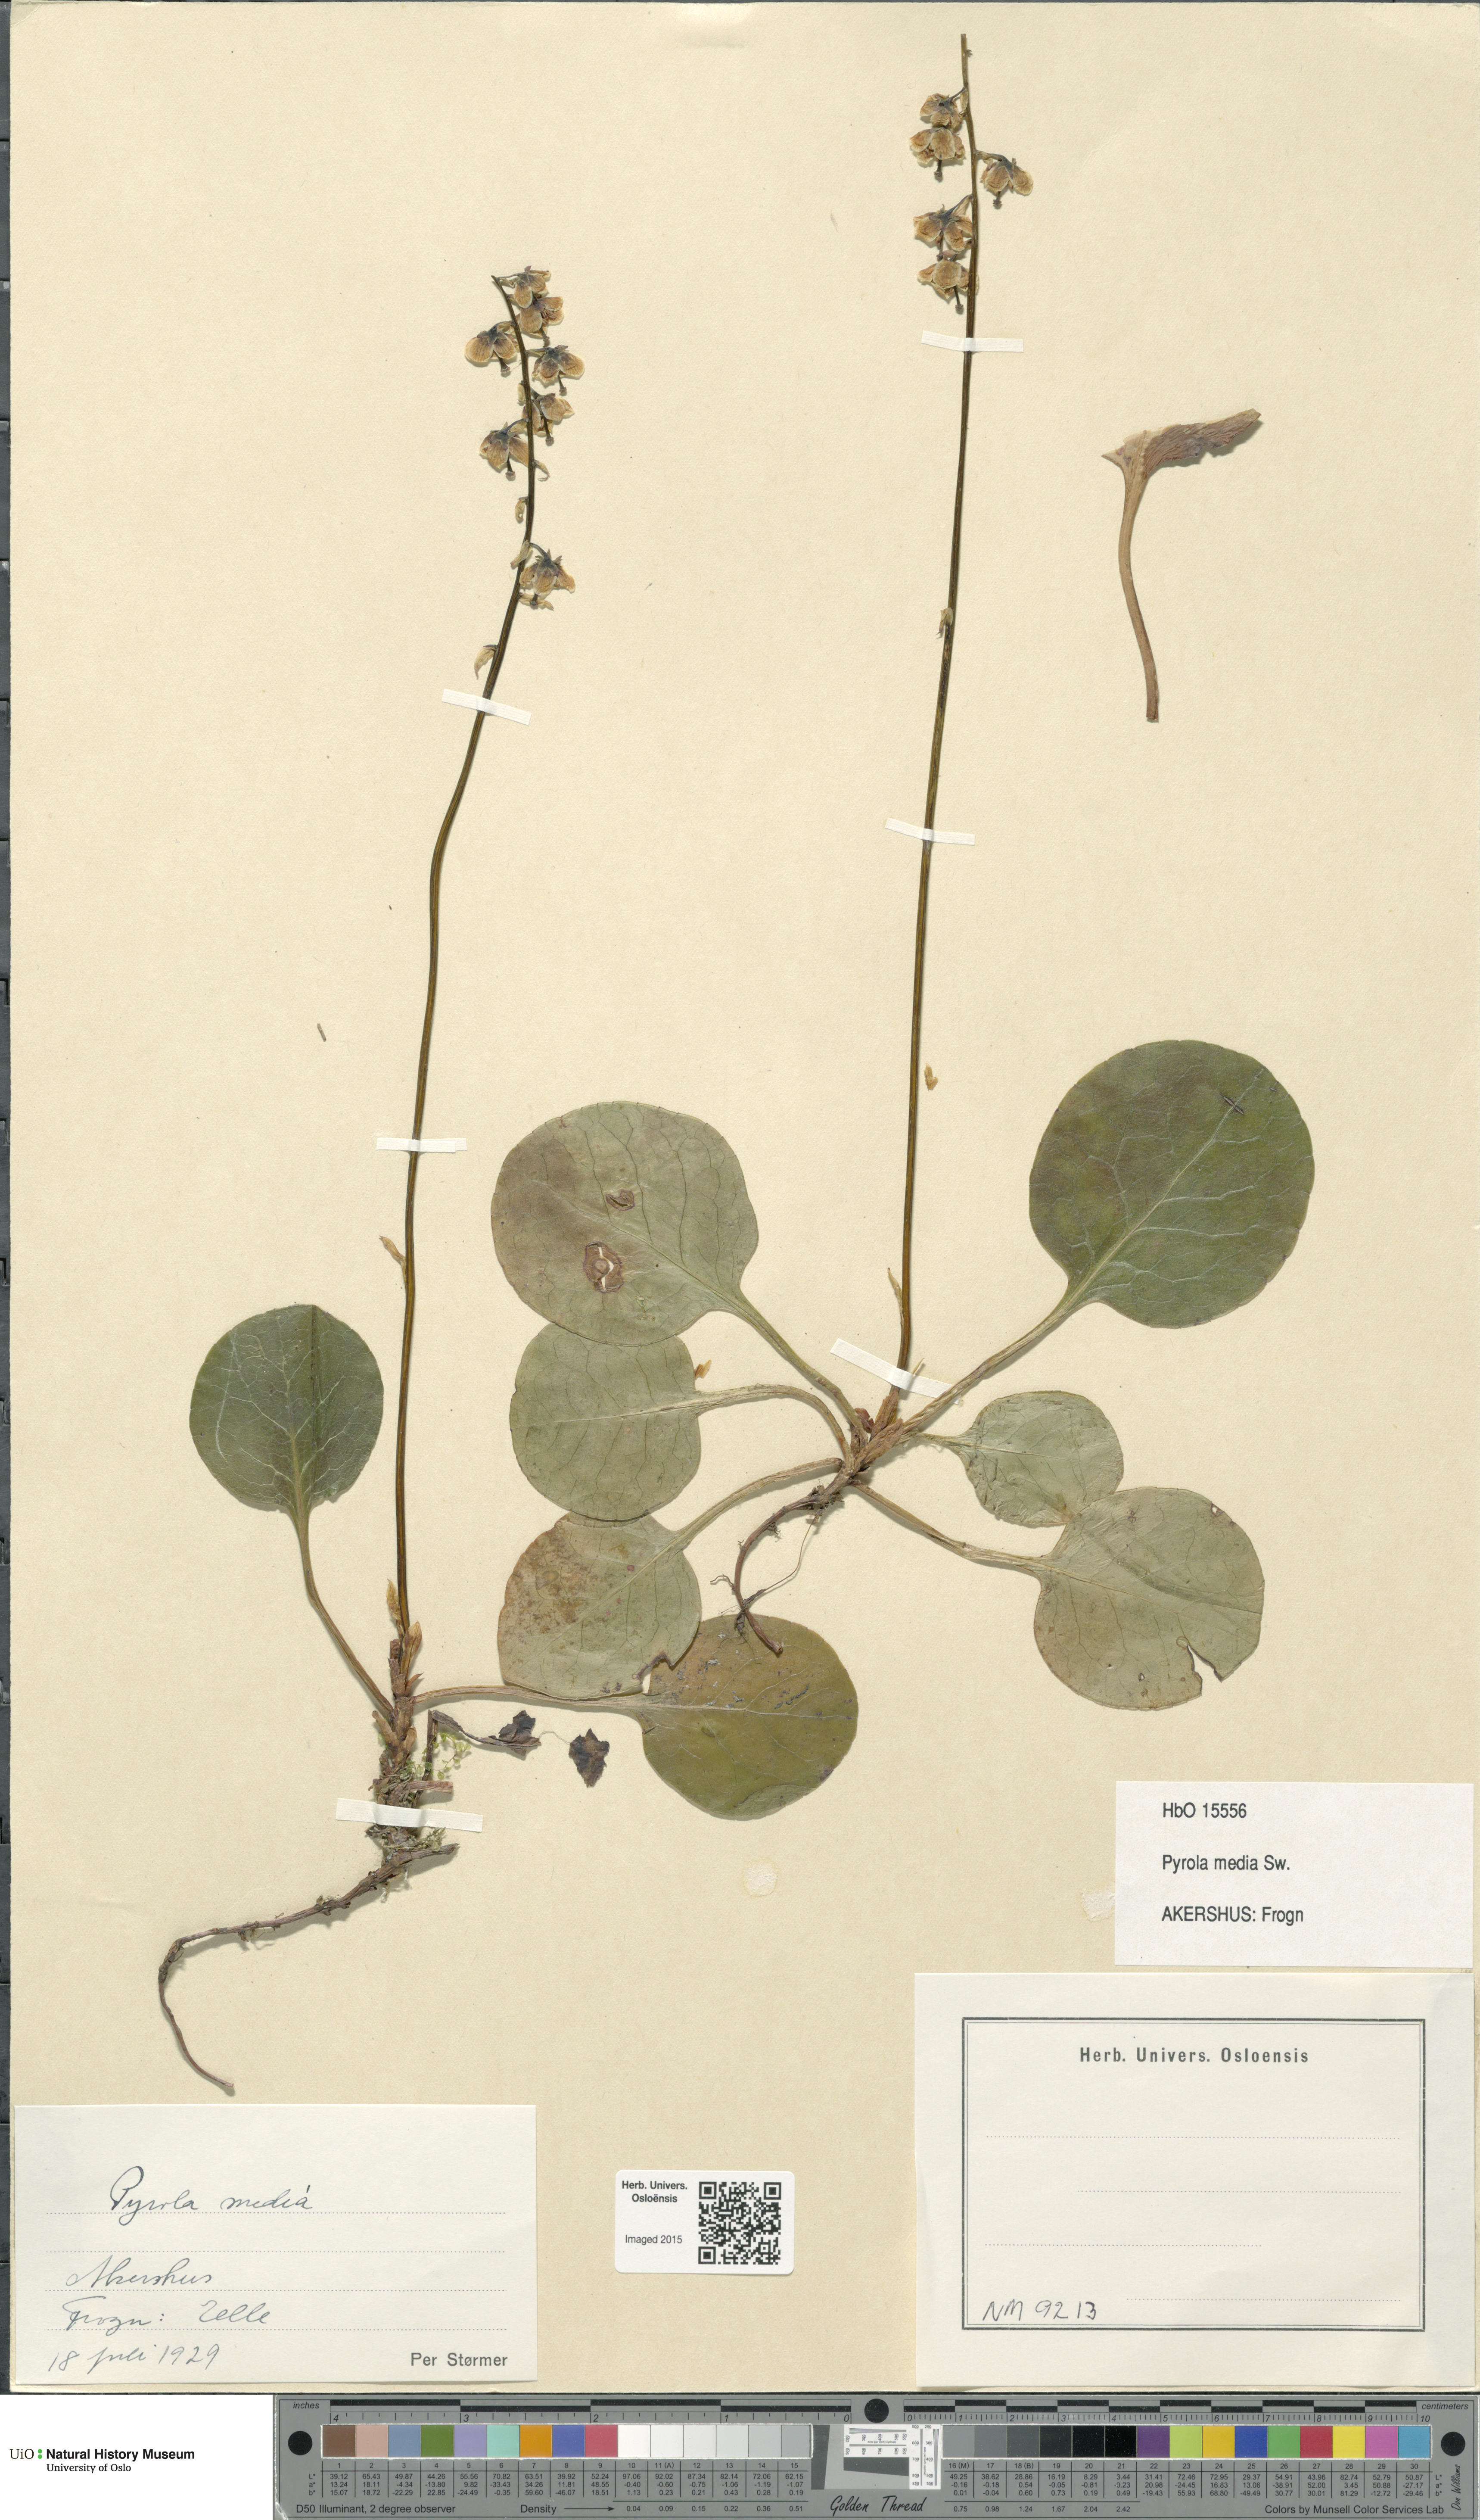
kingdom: Plantae
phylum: Tracheophyta
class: Magnoliopsida
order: Ericales
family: Ericaceae
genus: Pyrola
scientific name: Pyrola media
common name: Intermediate wintergreen
